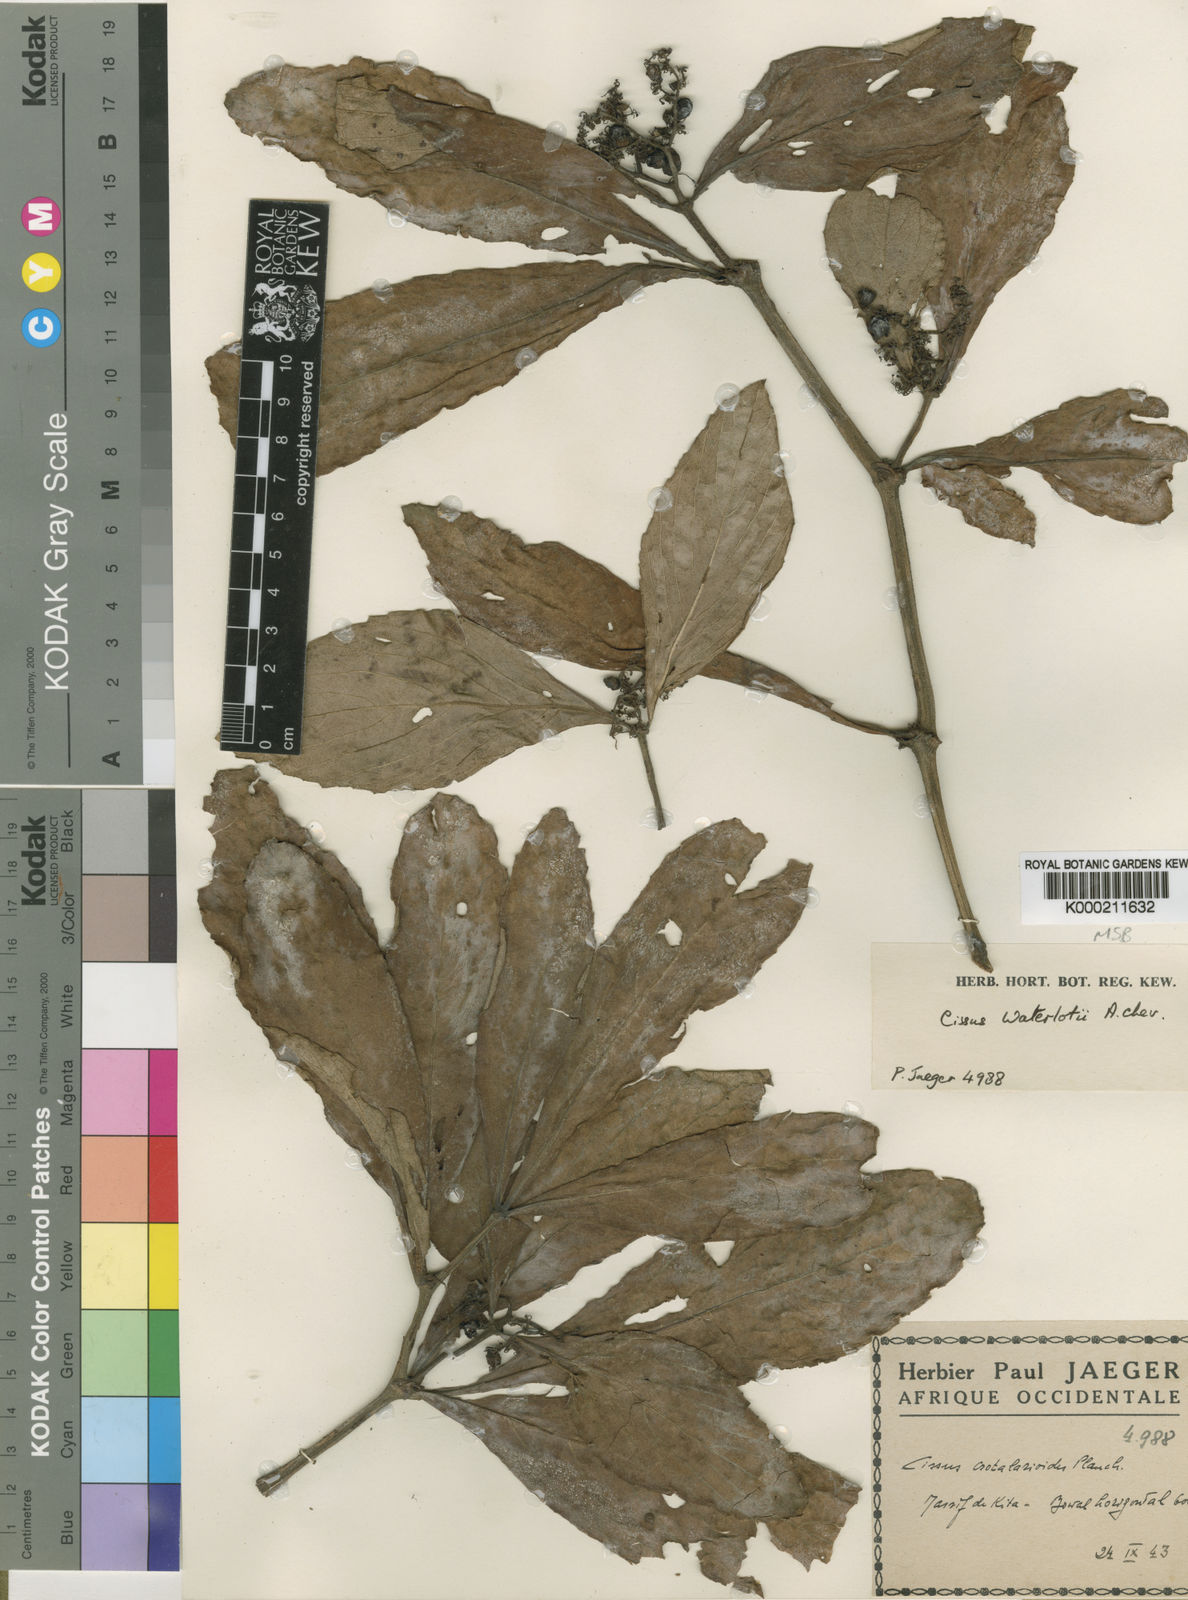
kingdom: Plantae
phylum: Tracheophyta
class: Magnoliopsida
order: Vitales
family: Vitaceae
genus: Cyphostemma
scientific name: Cyphostemma waterlotii
